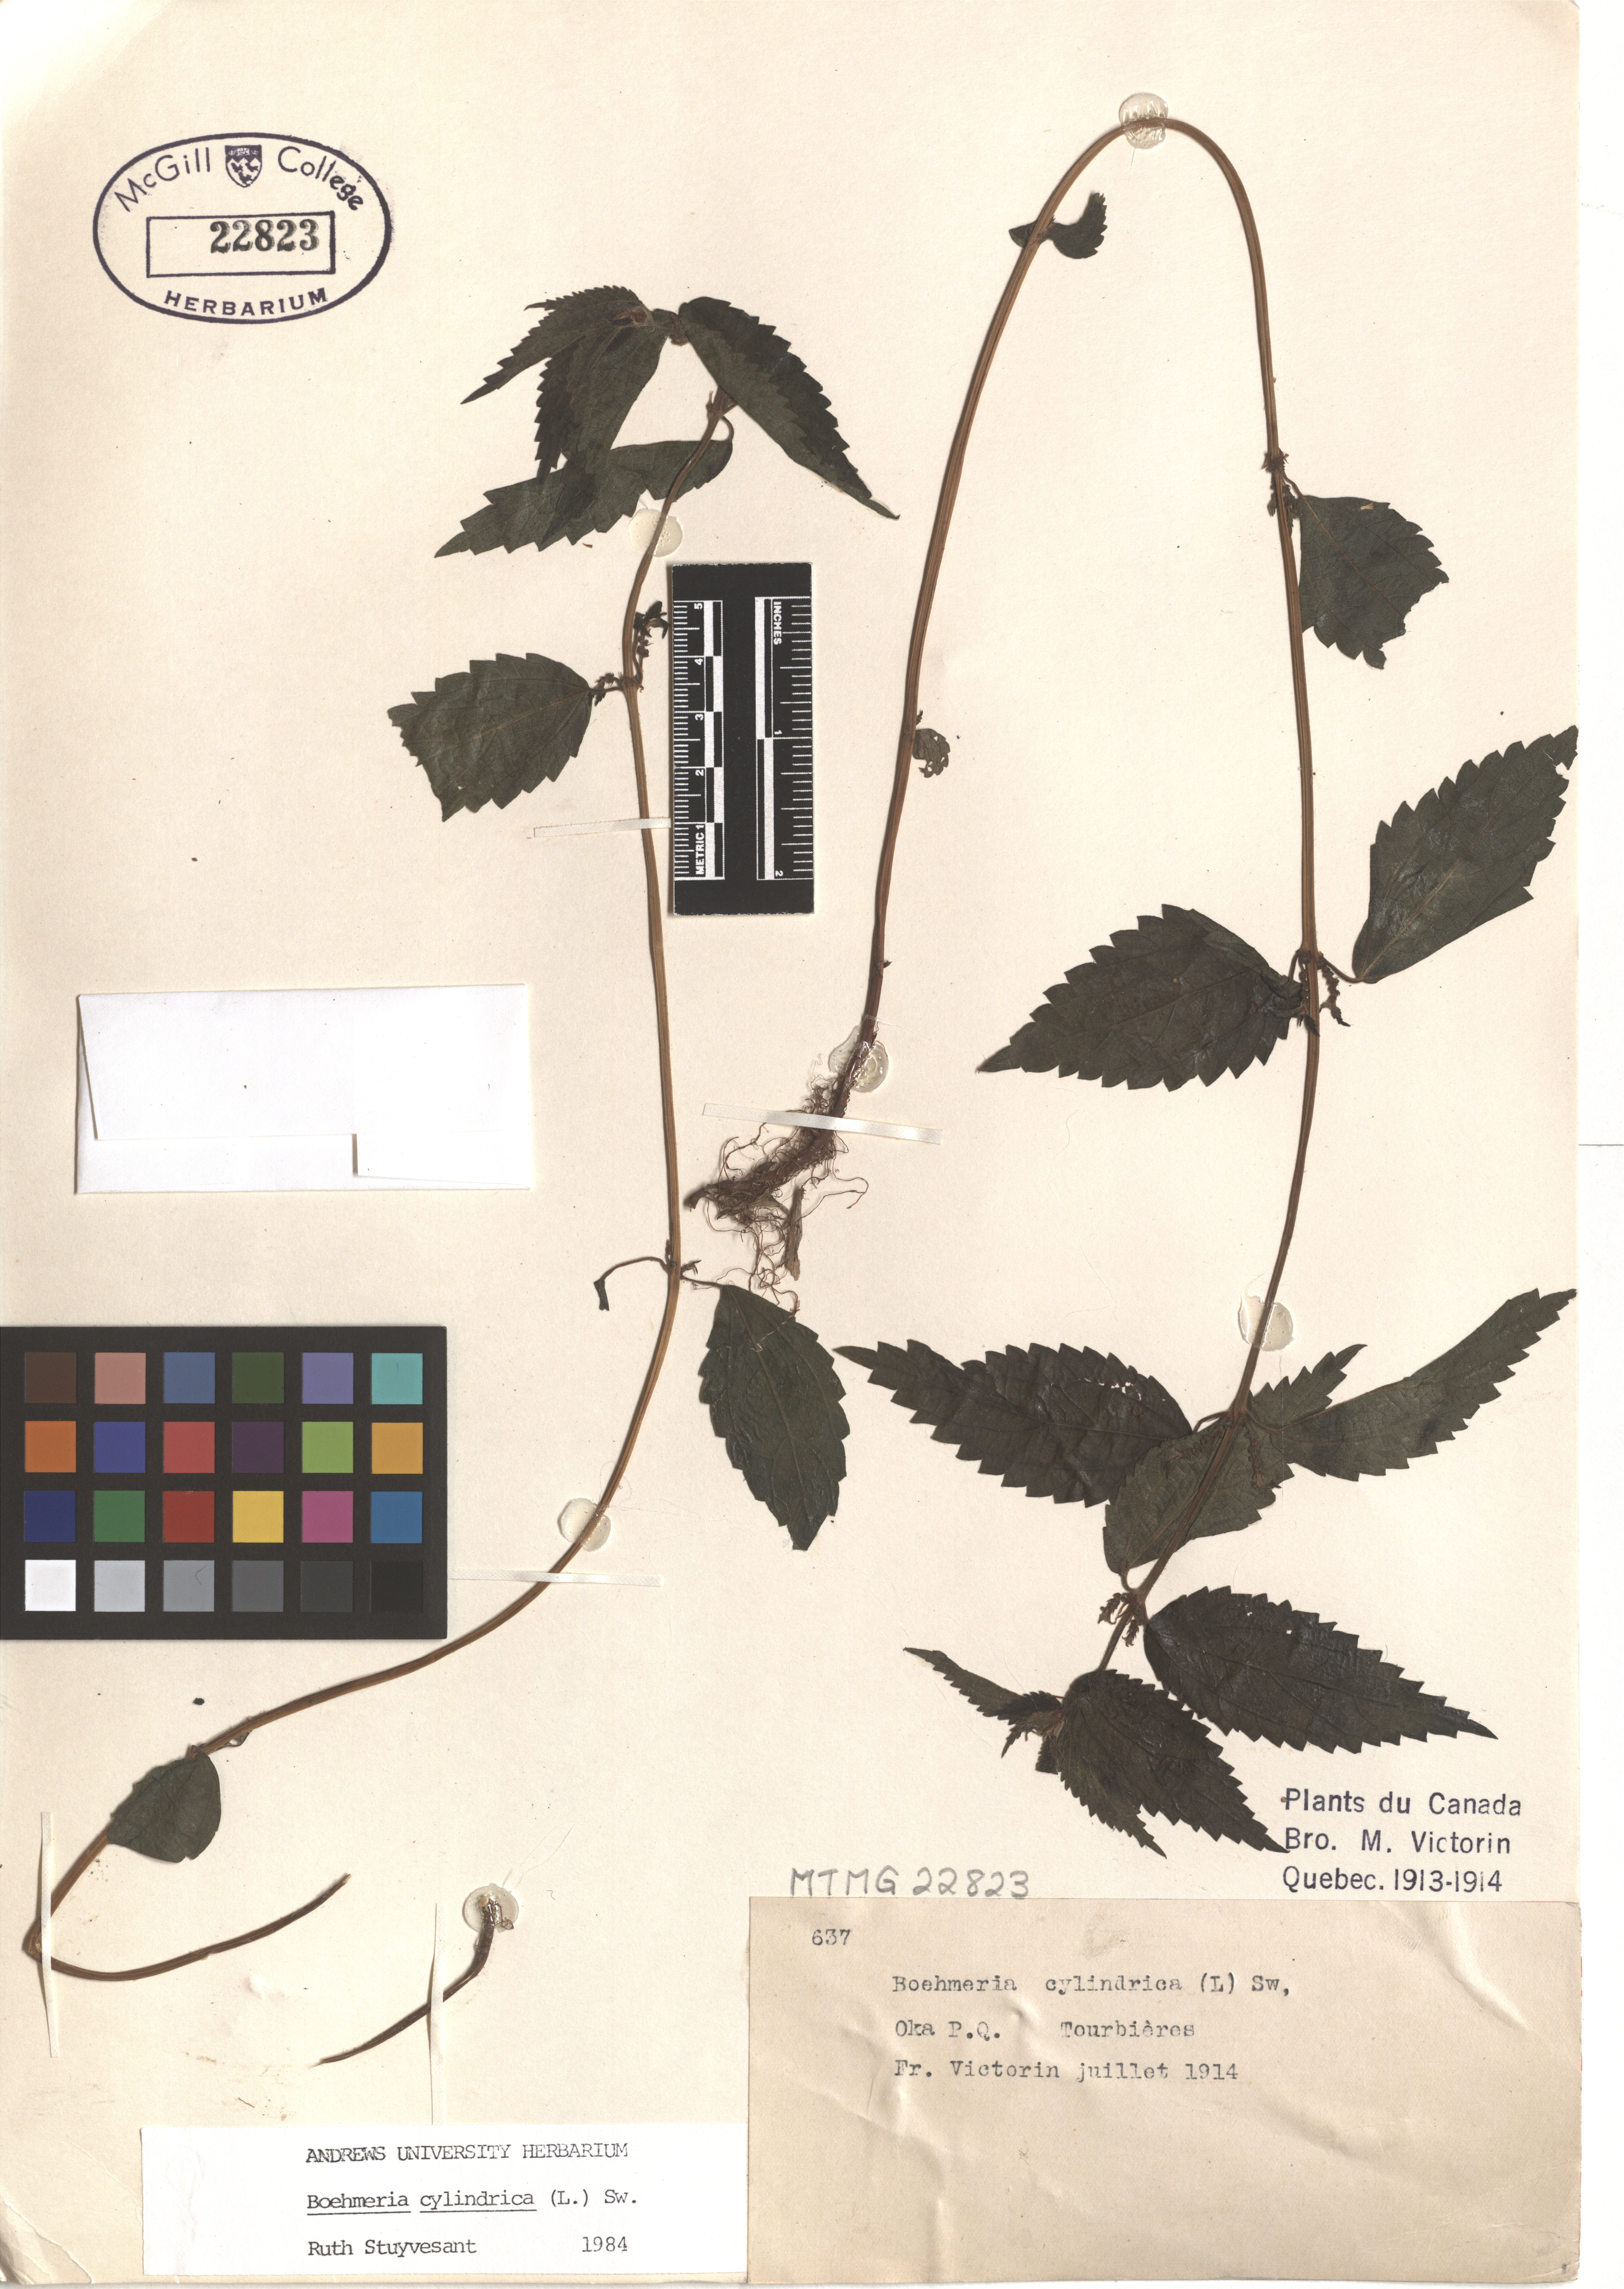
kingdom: Plantae
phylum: Tracheophyta
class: Magnoliopsida
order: Rosales
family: Urticaceae
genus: Boehmeria
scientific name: Boehmeria cylindrica
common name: Bog-hemp
